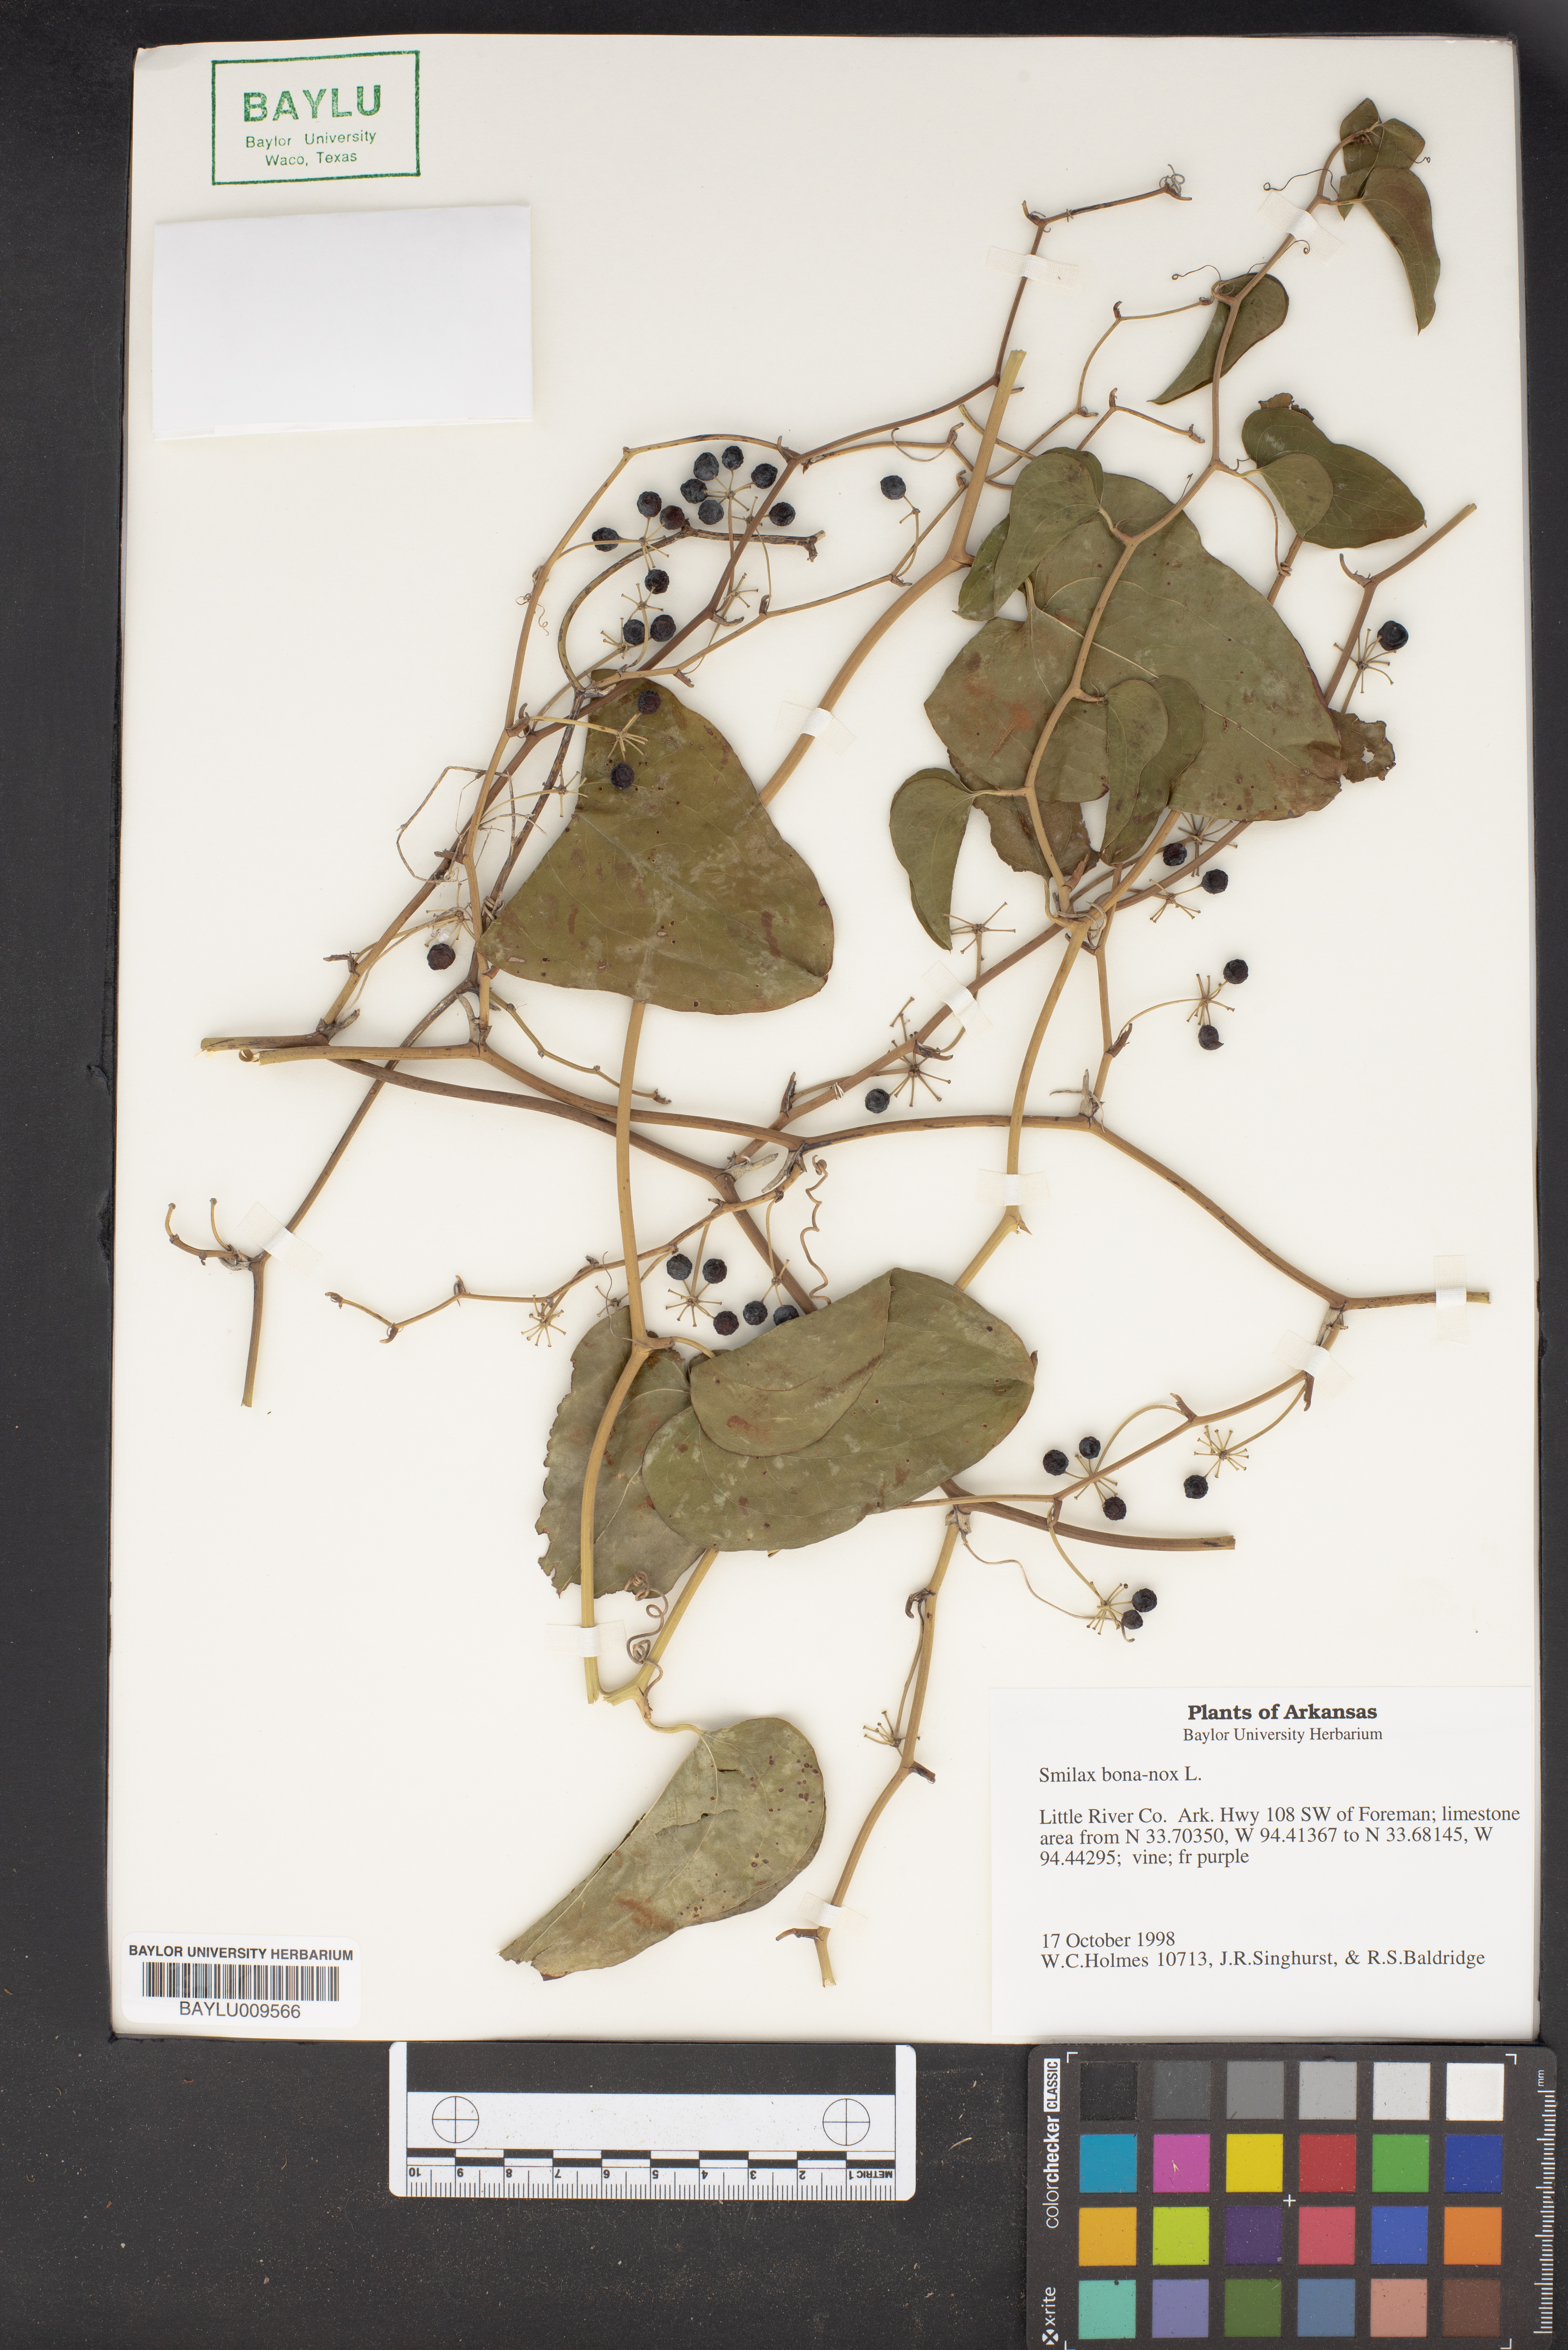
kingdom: Plantae
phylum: Tracheophyta
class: Liliopsida
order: Liliales
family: Smilacaceae
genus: Smilax
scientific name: Smilax bona-nox
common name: Catbrier
